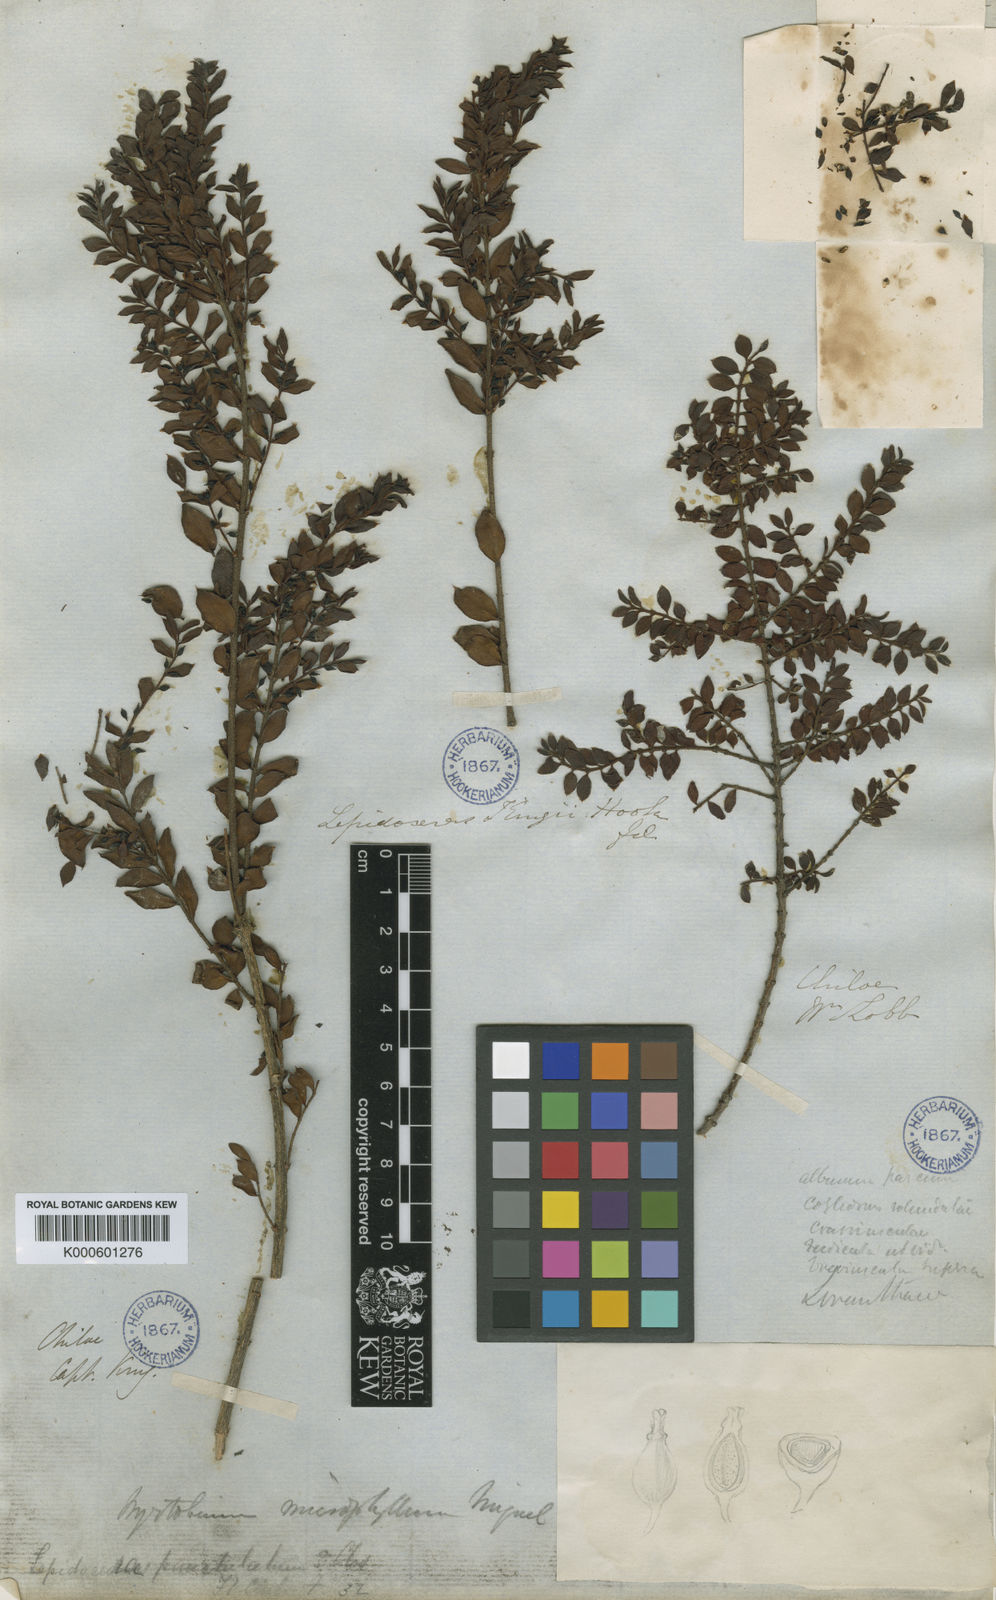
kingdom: Plantae
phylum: Tracheophyta
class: Magnoliopsida
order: Santalales
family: Santalaceae
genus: Lepidoceras
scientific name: Lepidoceras chilense
